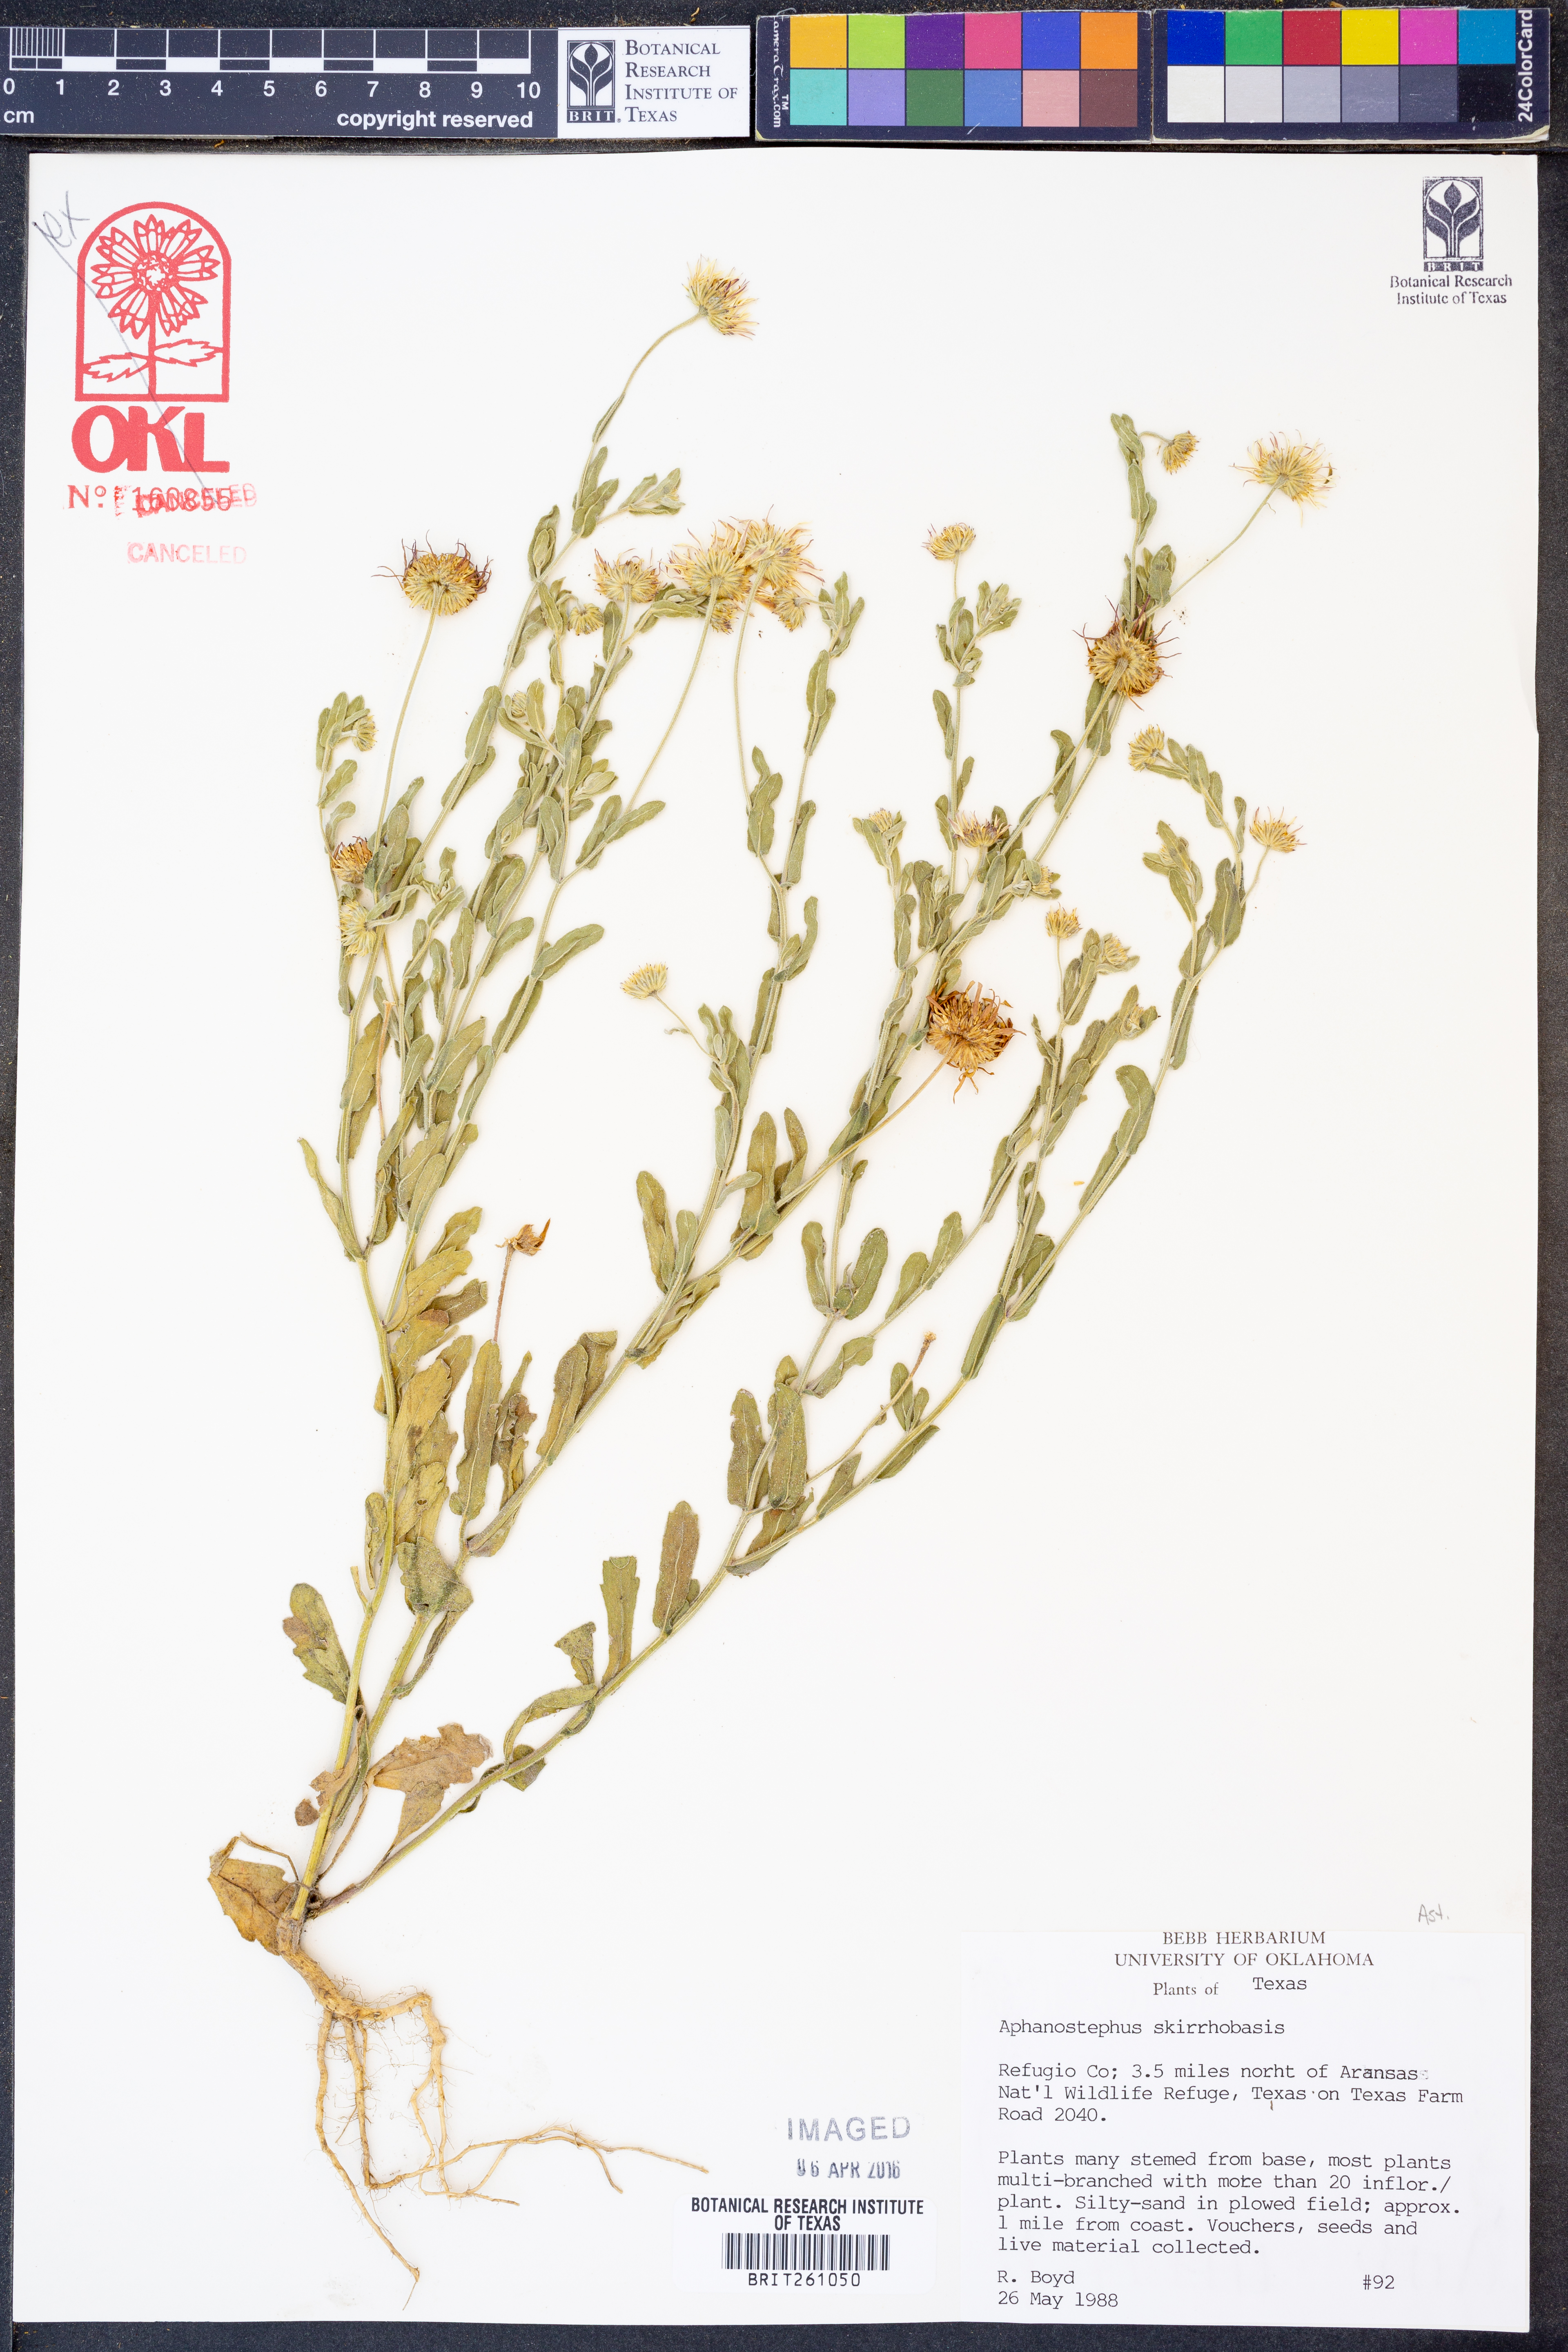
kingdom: Plantae
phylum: Tracheophyta
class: Magnoliopsida
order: Asterales
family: Asteraceae
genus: Aphanostephus
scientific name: Aphanostephus skirrhobasis
